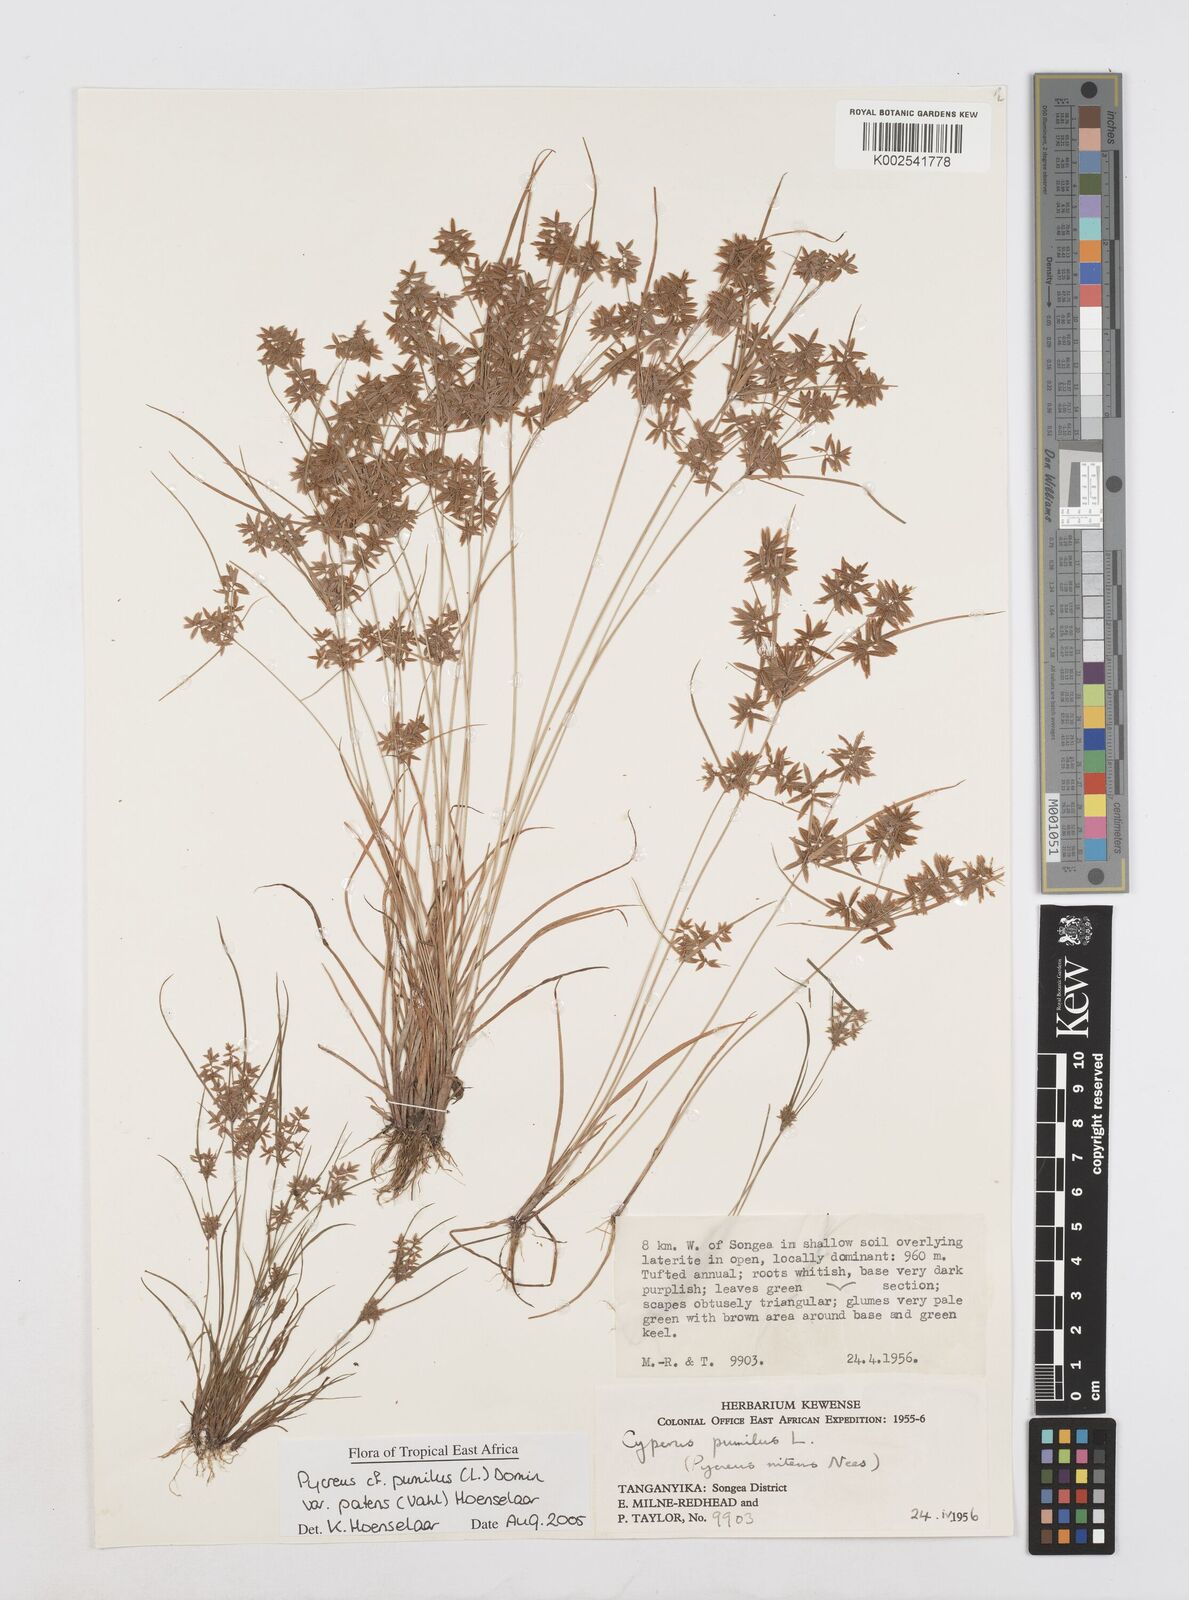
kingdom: Plantae
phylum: Tracheophyta
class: Liliopsida
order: Poales
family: Cyperaceae
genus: Cyperus
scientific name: Cyperus pumilus
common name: Low flatsedge
